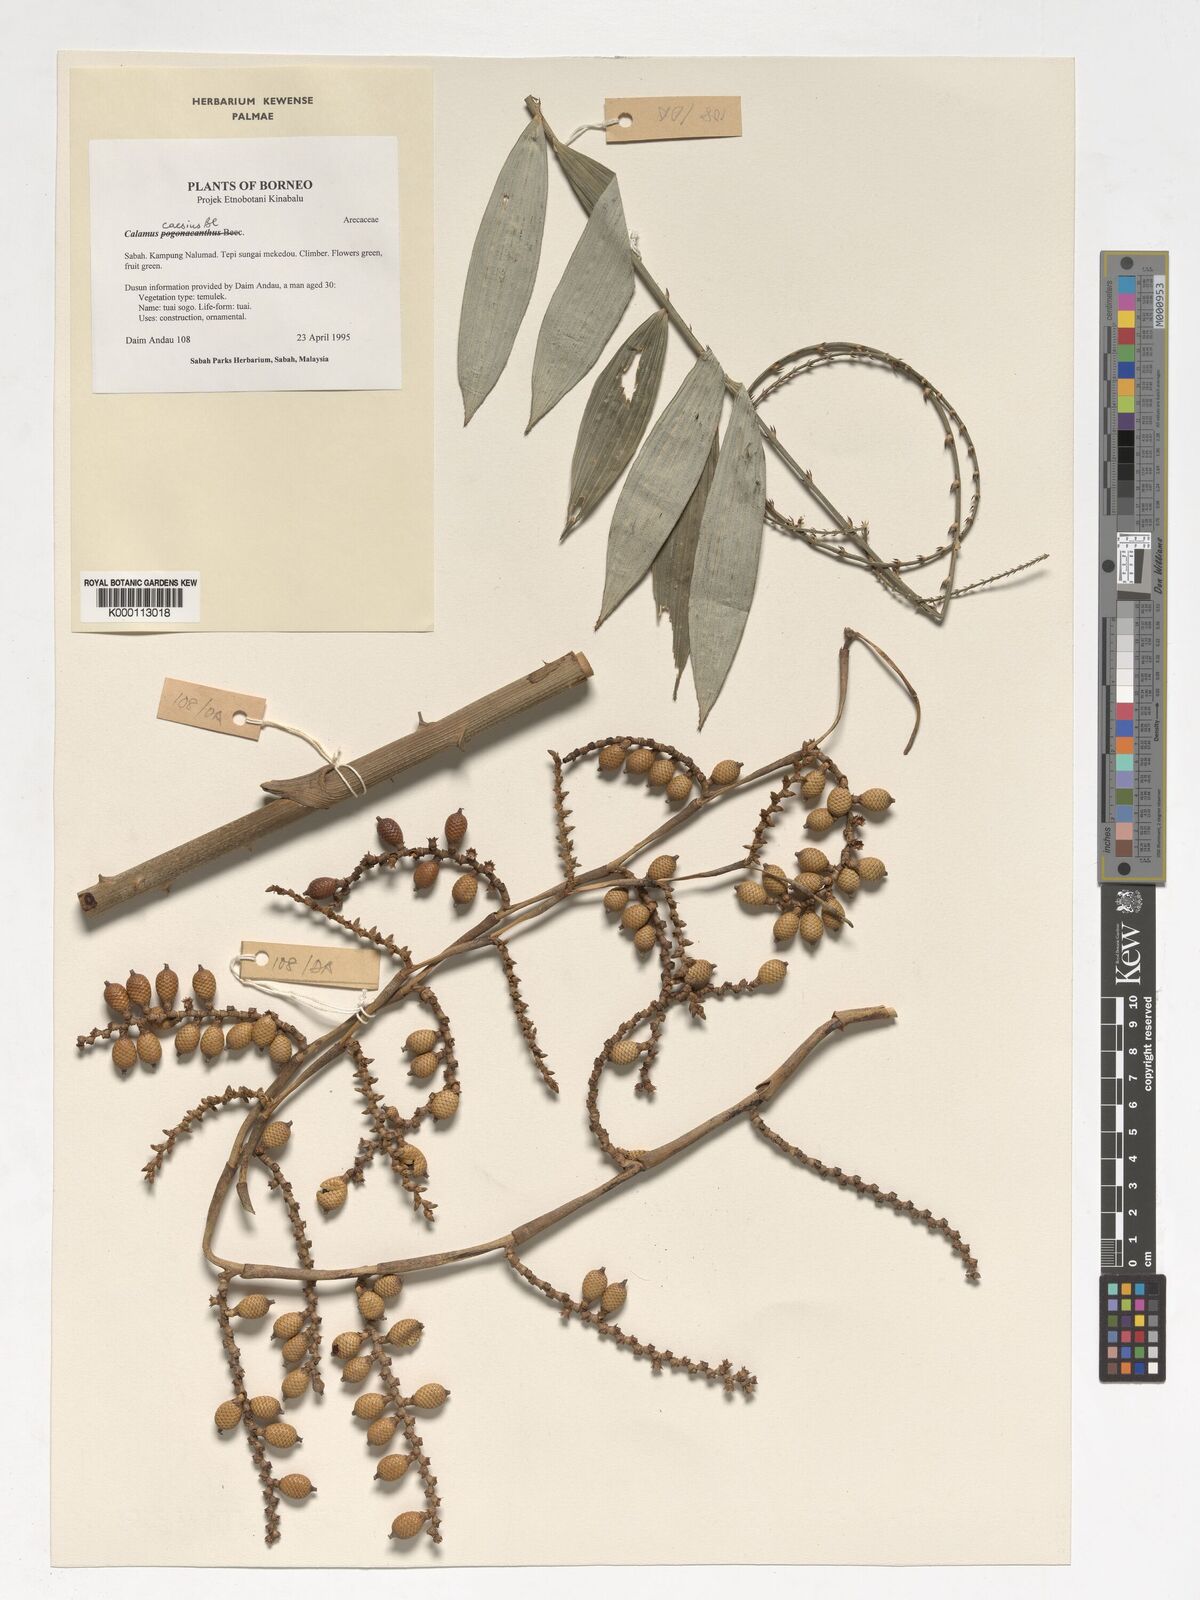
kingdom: Plantae
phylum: Tracheophyta
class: Liliopsida
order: Arecales
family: Arecaceae
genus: Calamus
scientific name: Calamus caesius
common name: Rattan palm
